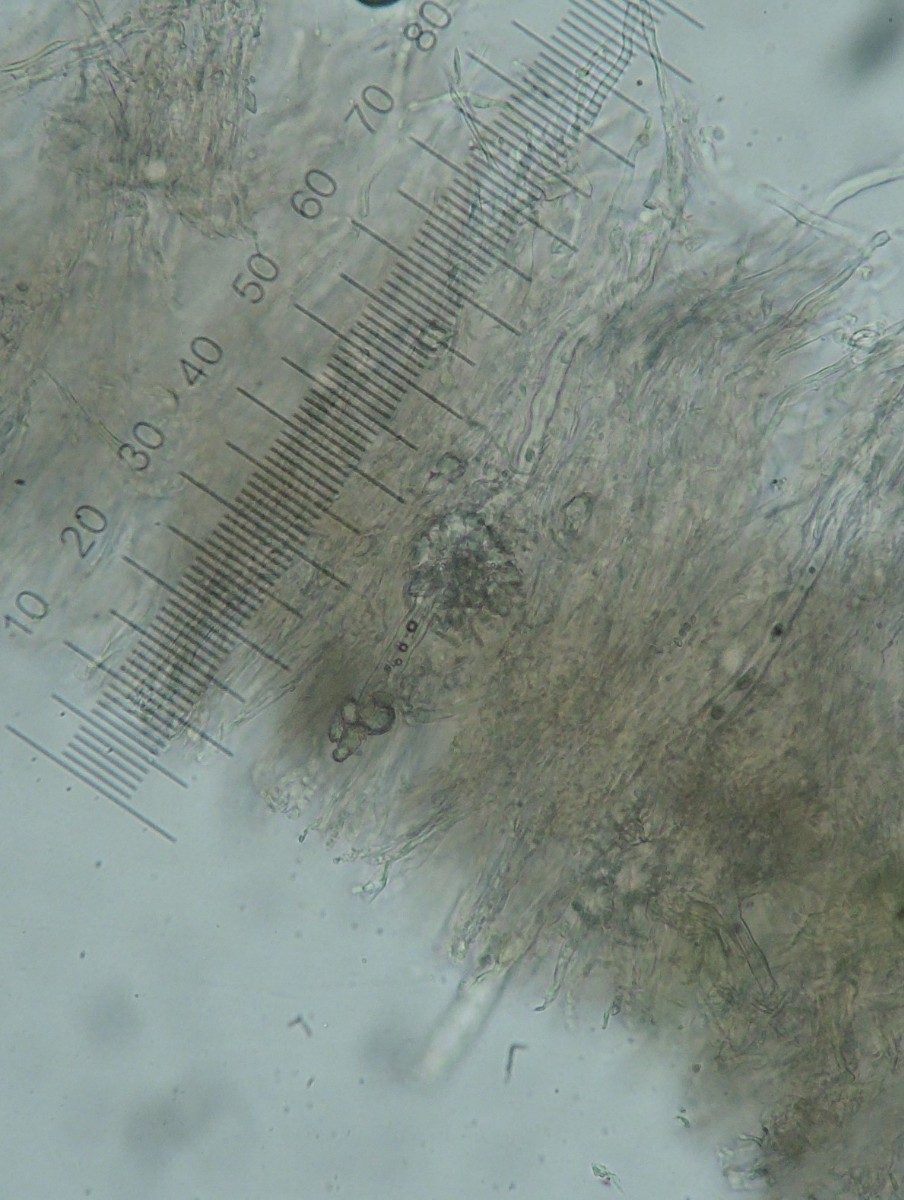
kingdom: Fungi
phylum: Basidiomycota
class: Agaricomycetes
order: Polyporales
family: Dacryobolaceae
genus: Dacryobolus
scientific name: Dacryobolus karstenii
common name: glat vulkanskorpe
